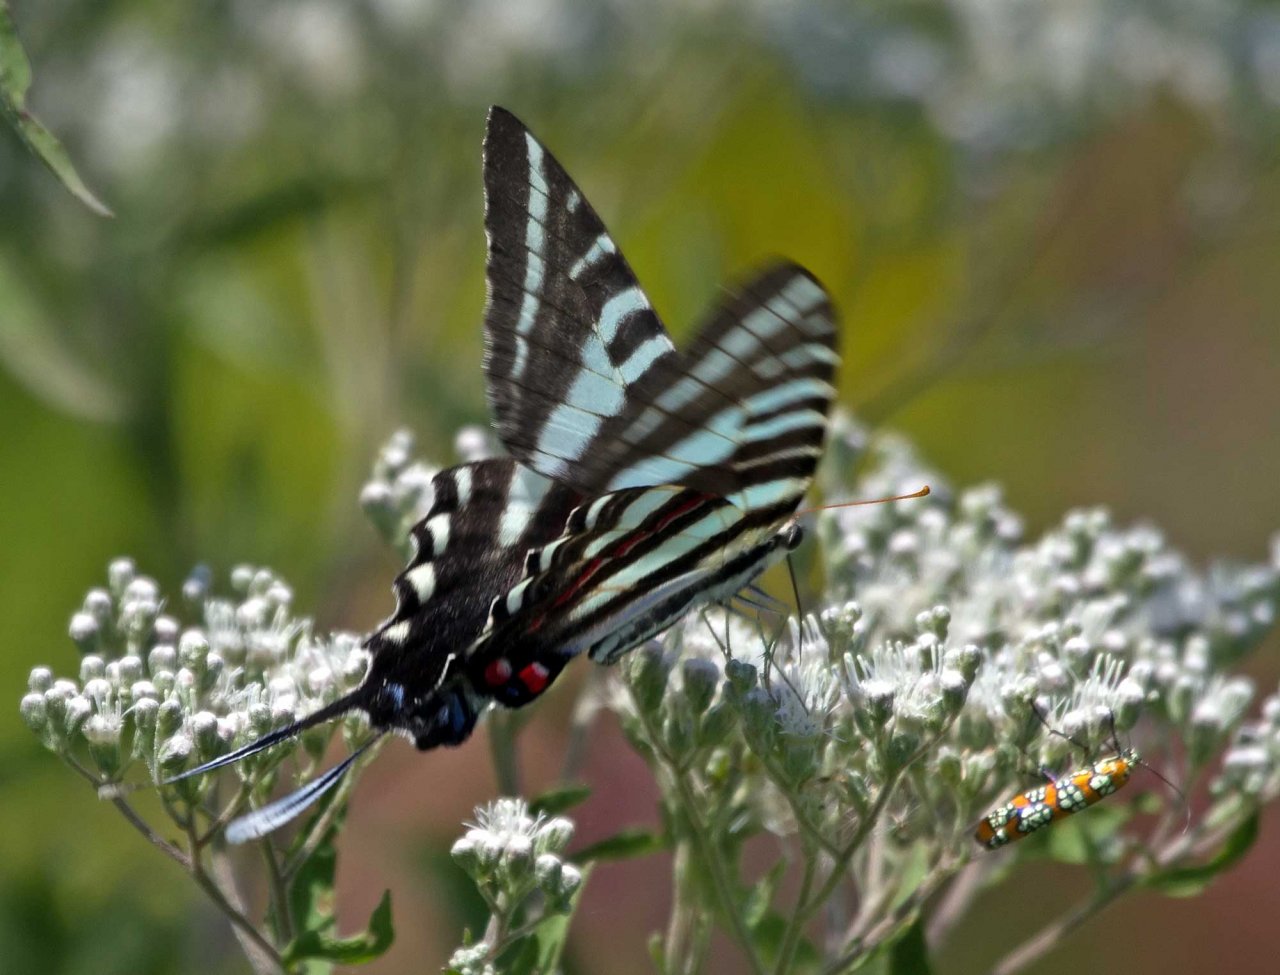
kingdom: Animalia
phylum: Arthropoda
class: Insecta
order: Lepidoptera
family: Papilionidae
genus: Protographium
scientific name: Protographium marcellus
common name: Zebra Swallowtail
